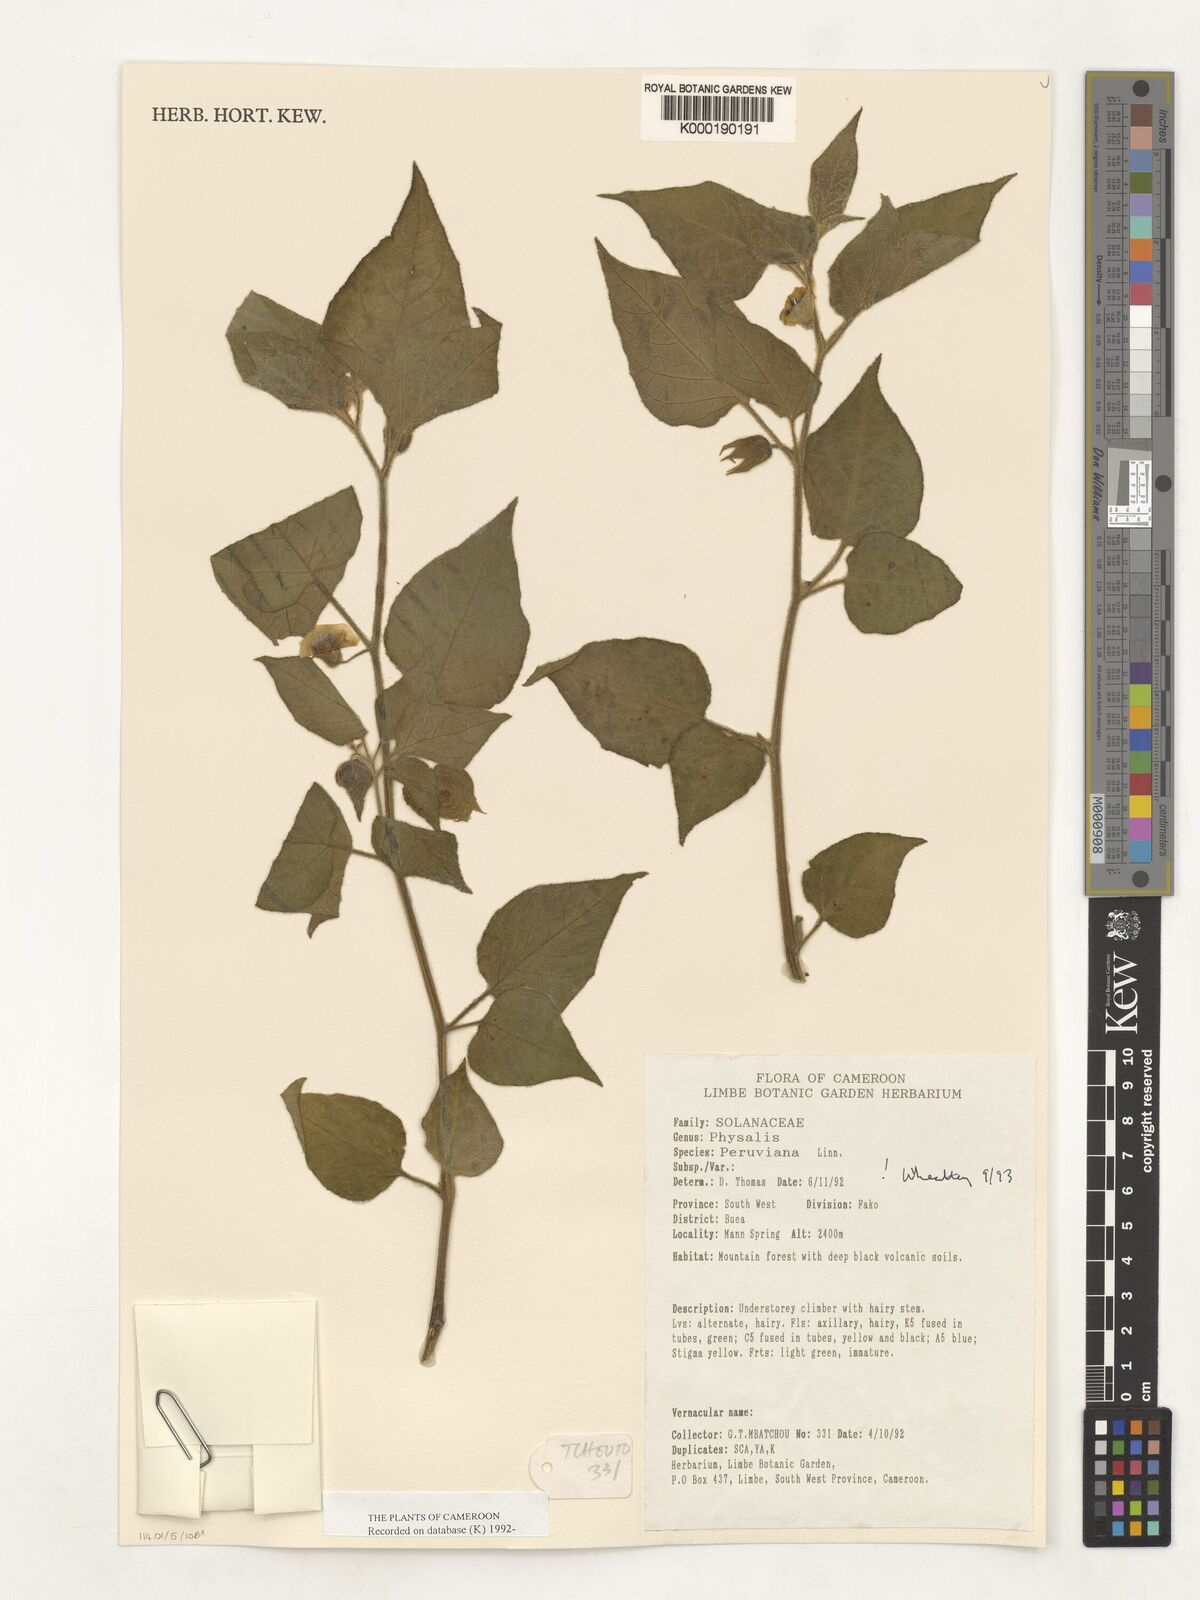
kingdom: Plantae
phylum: Tracheophyta
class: Magnoliopsida
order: Solanales
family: Solanaceae
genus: Physalis
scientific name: Physalis peruviana
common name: Cape-gooseberry
